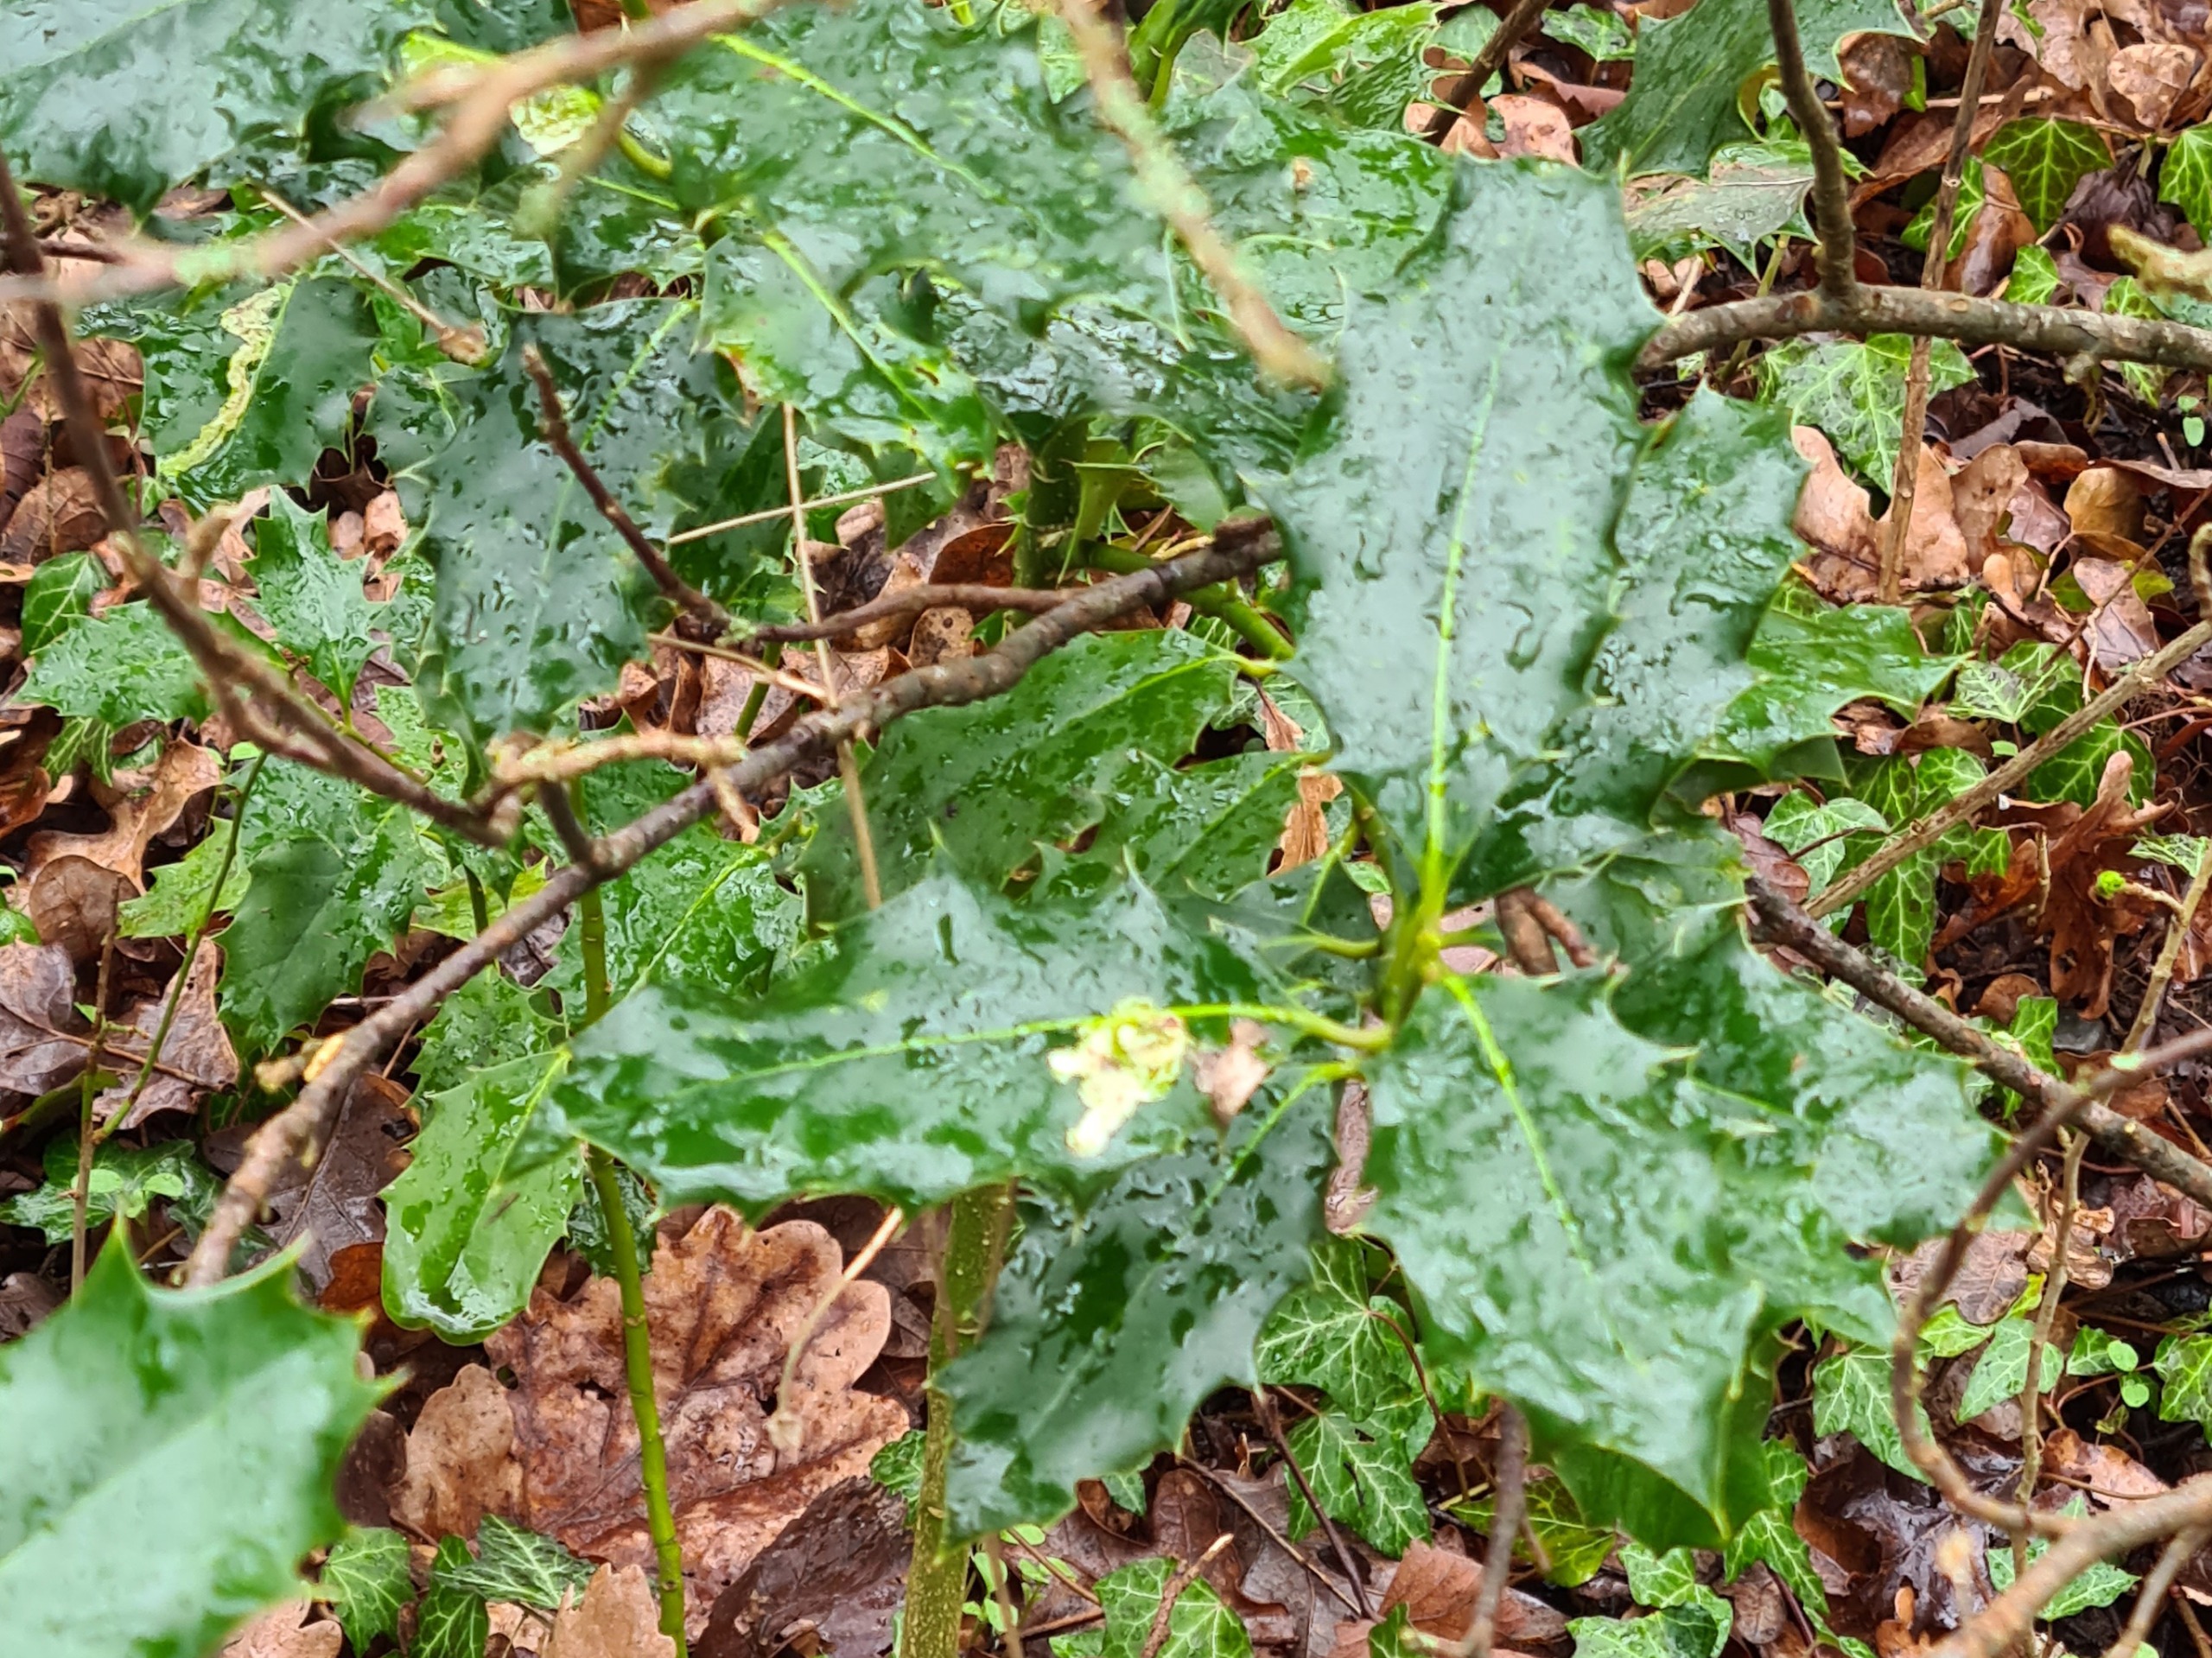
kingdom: Animalia
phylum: Arthropoda
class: Insecta
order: Diptera
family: Agromyzidae
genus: Phytomyza
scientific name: Phytomyza ilicis
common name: Kristtornminérflue
